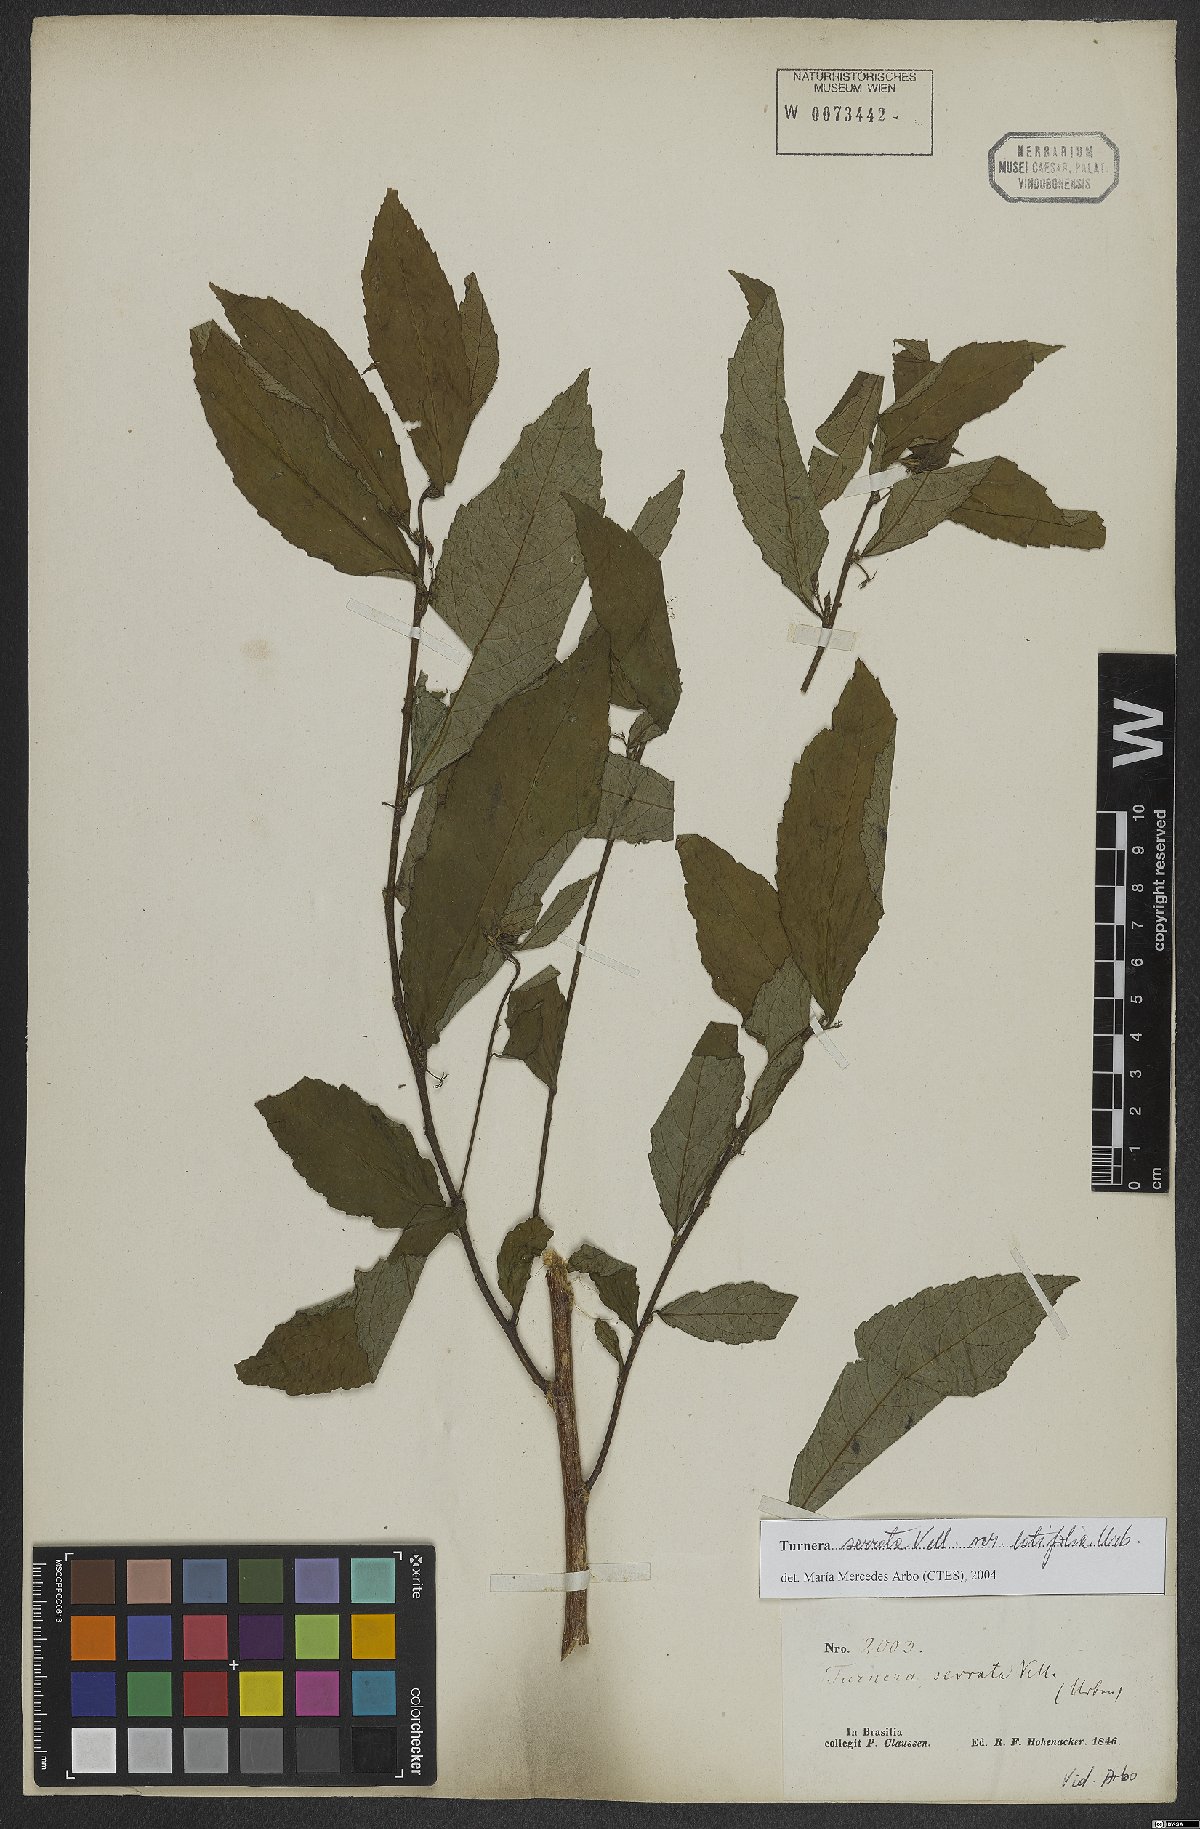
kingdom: Plantae
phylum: Tracheophyta
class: Magnoliopsida
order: Malpighiales
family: Turneraceae
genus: Turnera
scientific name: Turnera serrata
